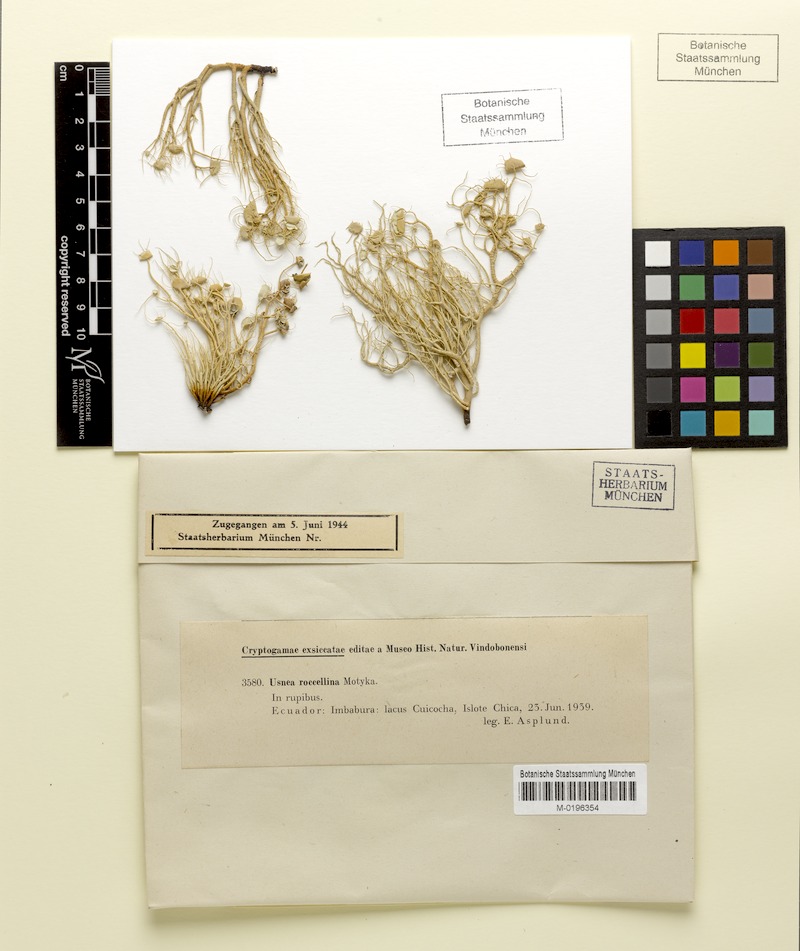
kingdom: Fungi
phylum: Ascomycota
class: Lecanoromycetes
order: Lecanorales
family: Parmeliaceae
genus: Usnea
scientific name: Usnea roccellina
